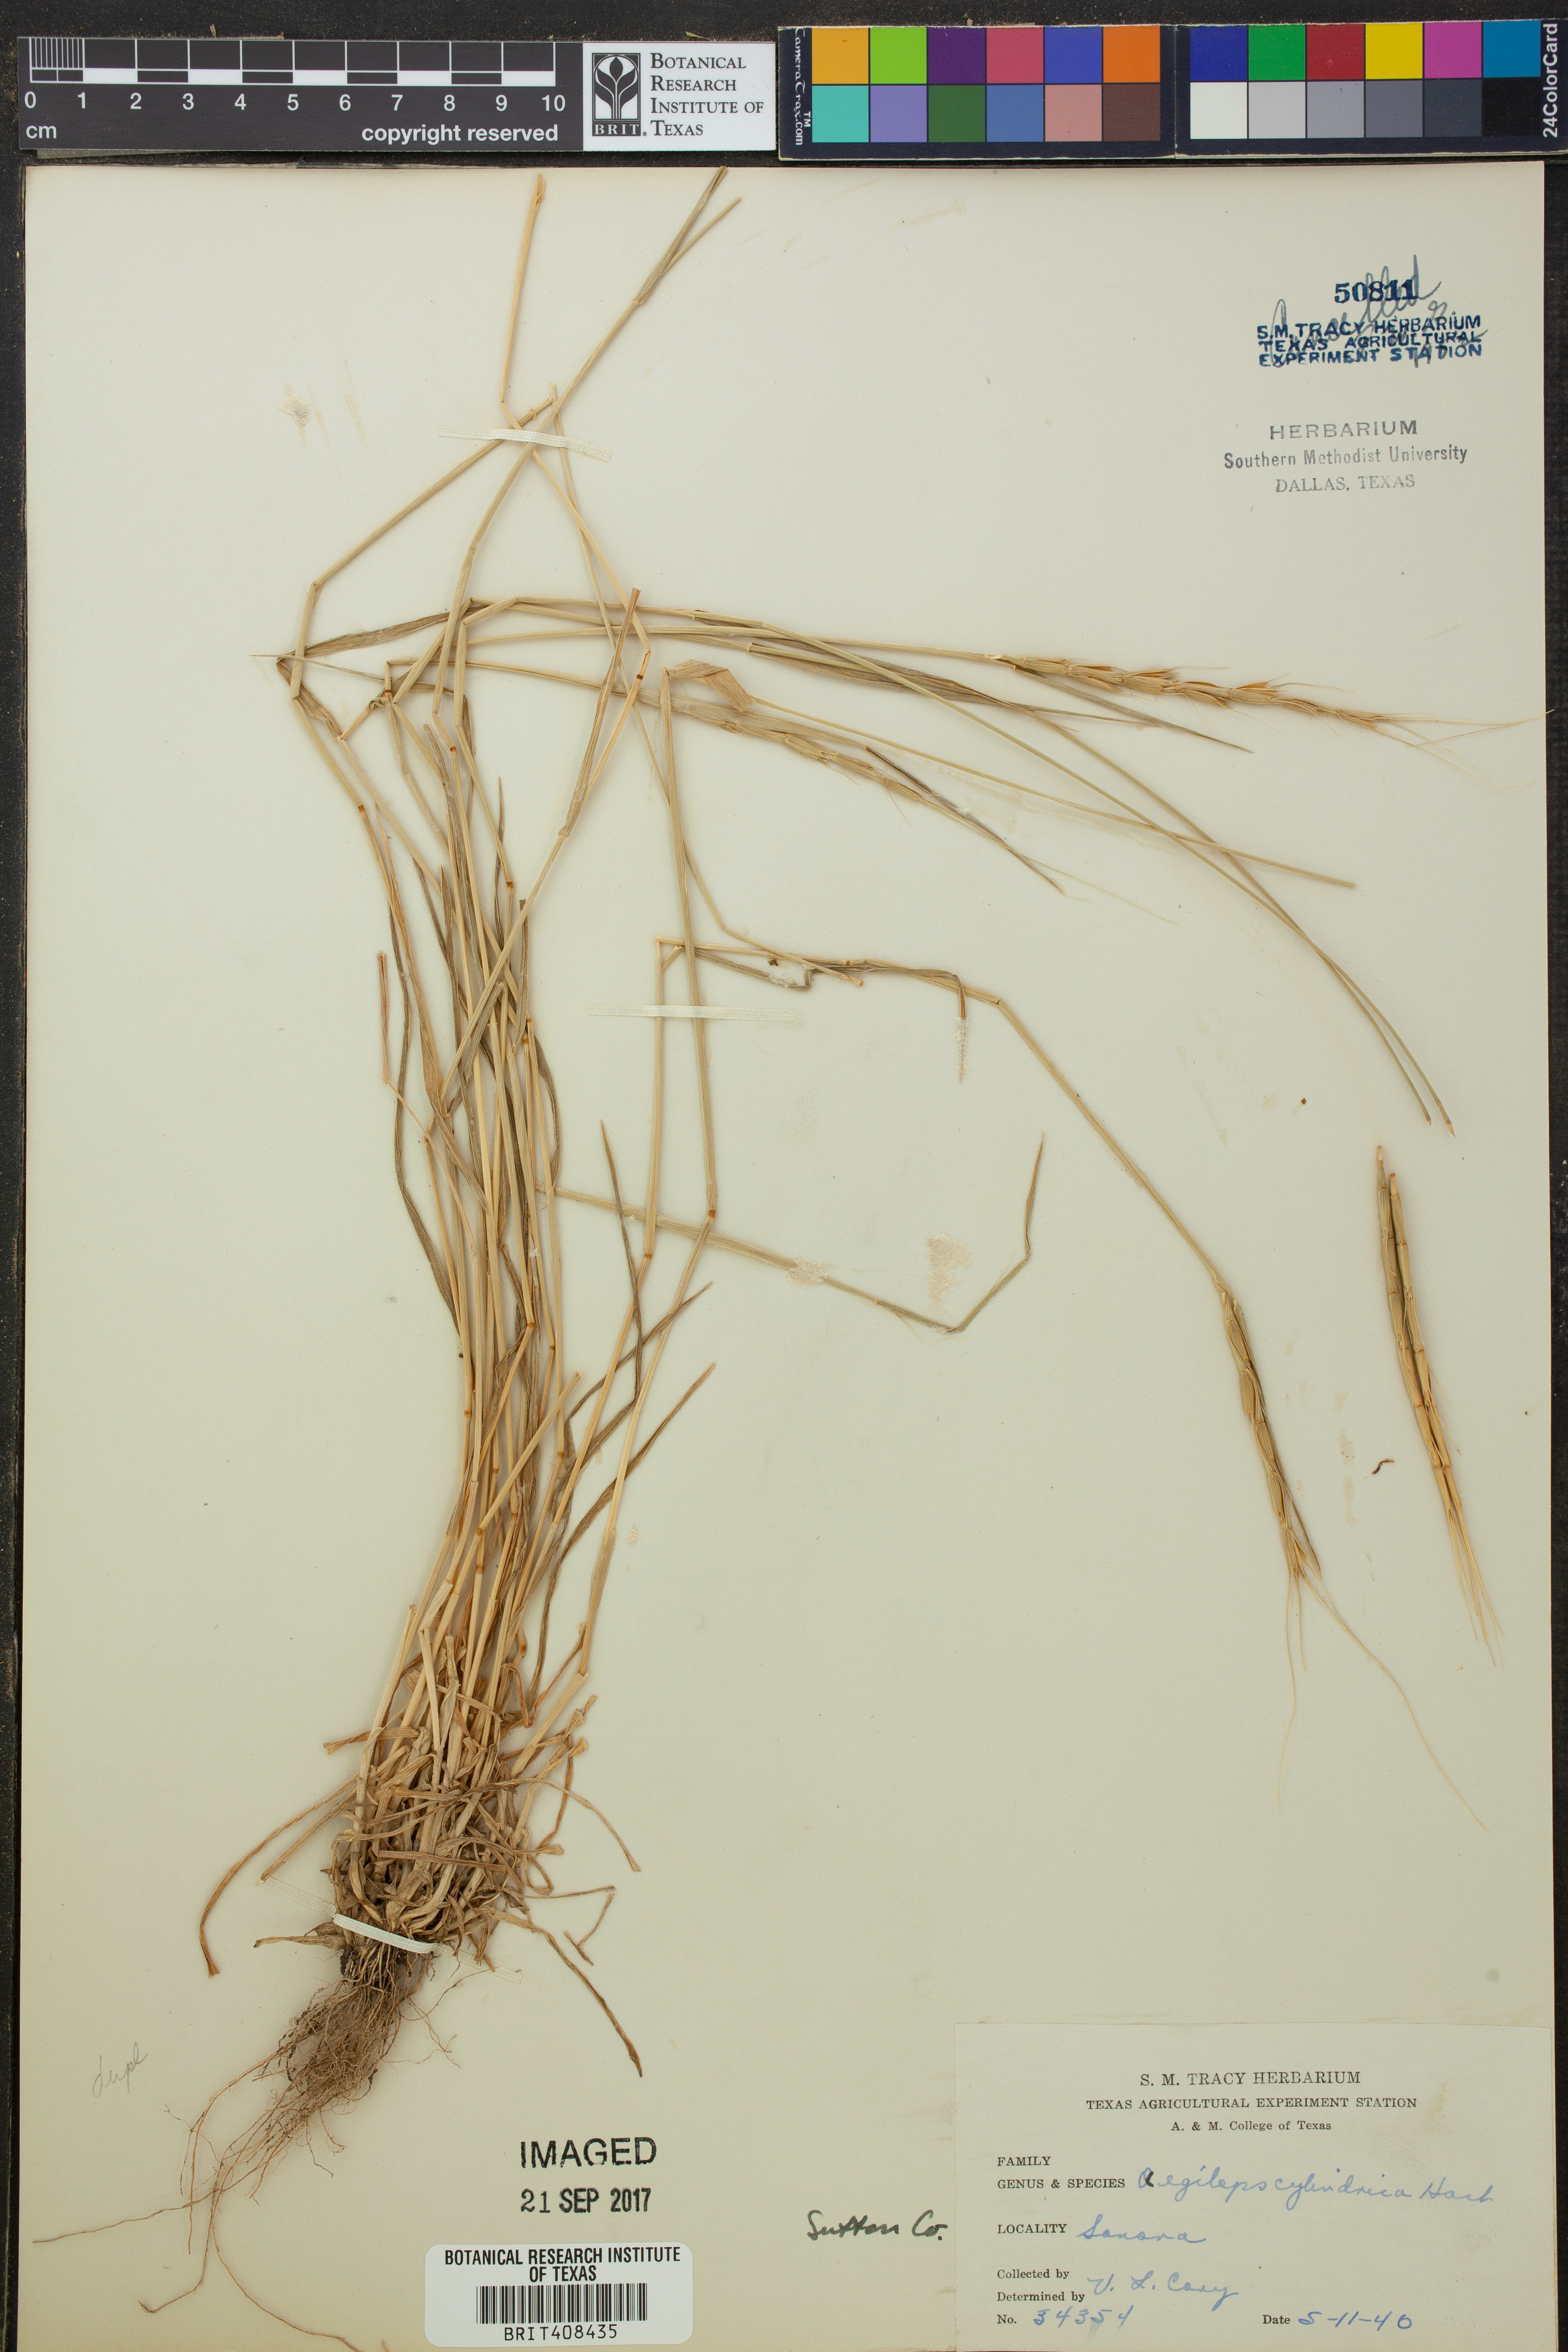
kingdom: Plantae
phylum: Tracheophyta
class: Liliopsida
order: Poales
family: Poaceae
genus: Aegilops
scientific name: Aegilops cylindrica
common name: Jointed goatgrass
